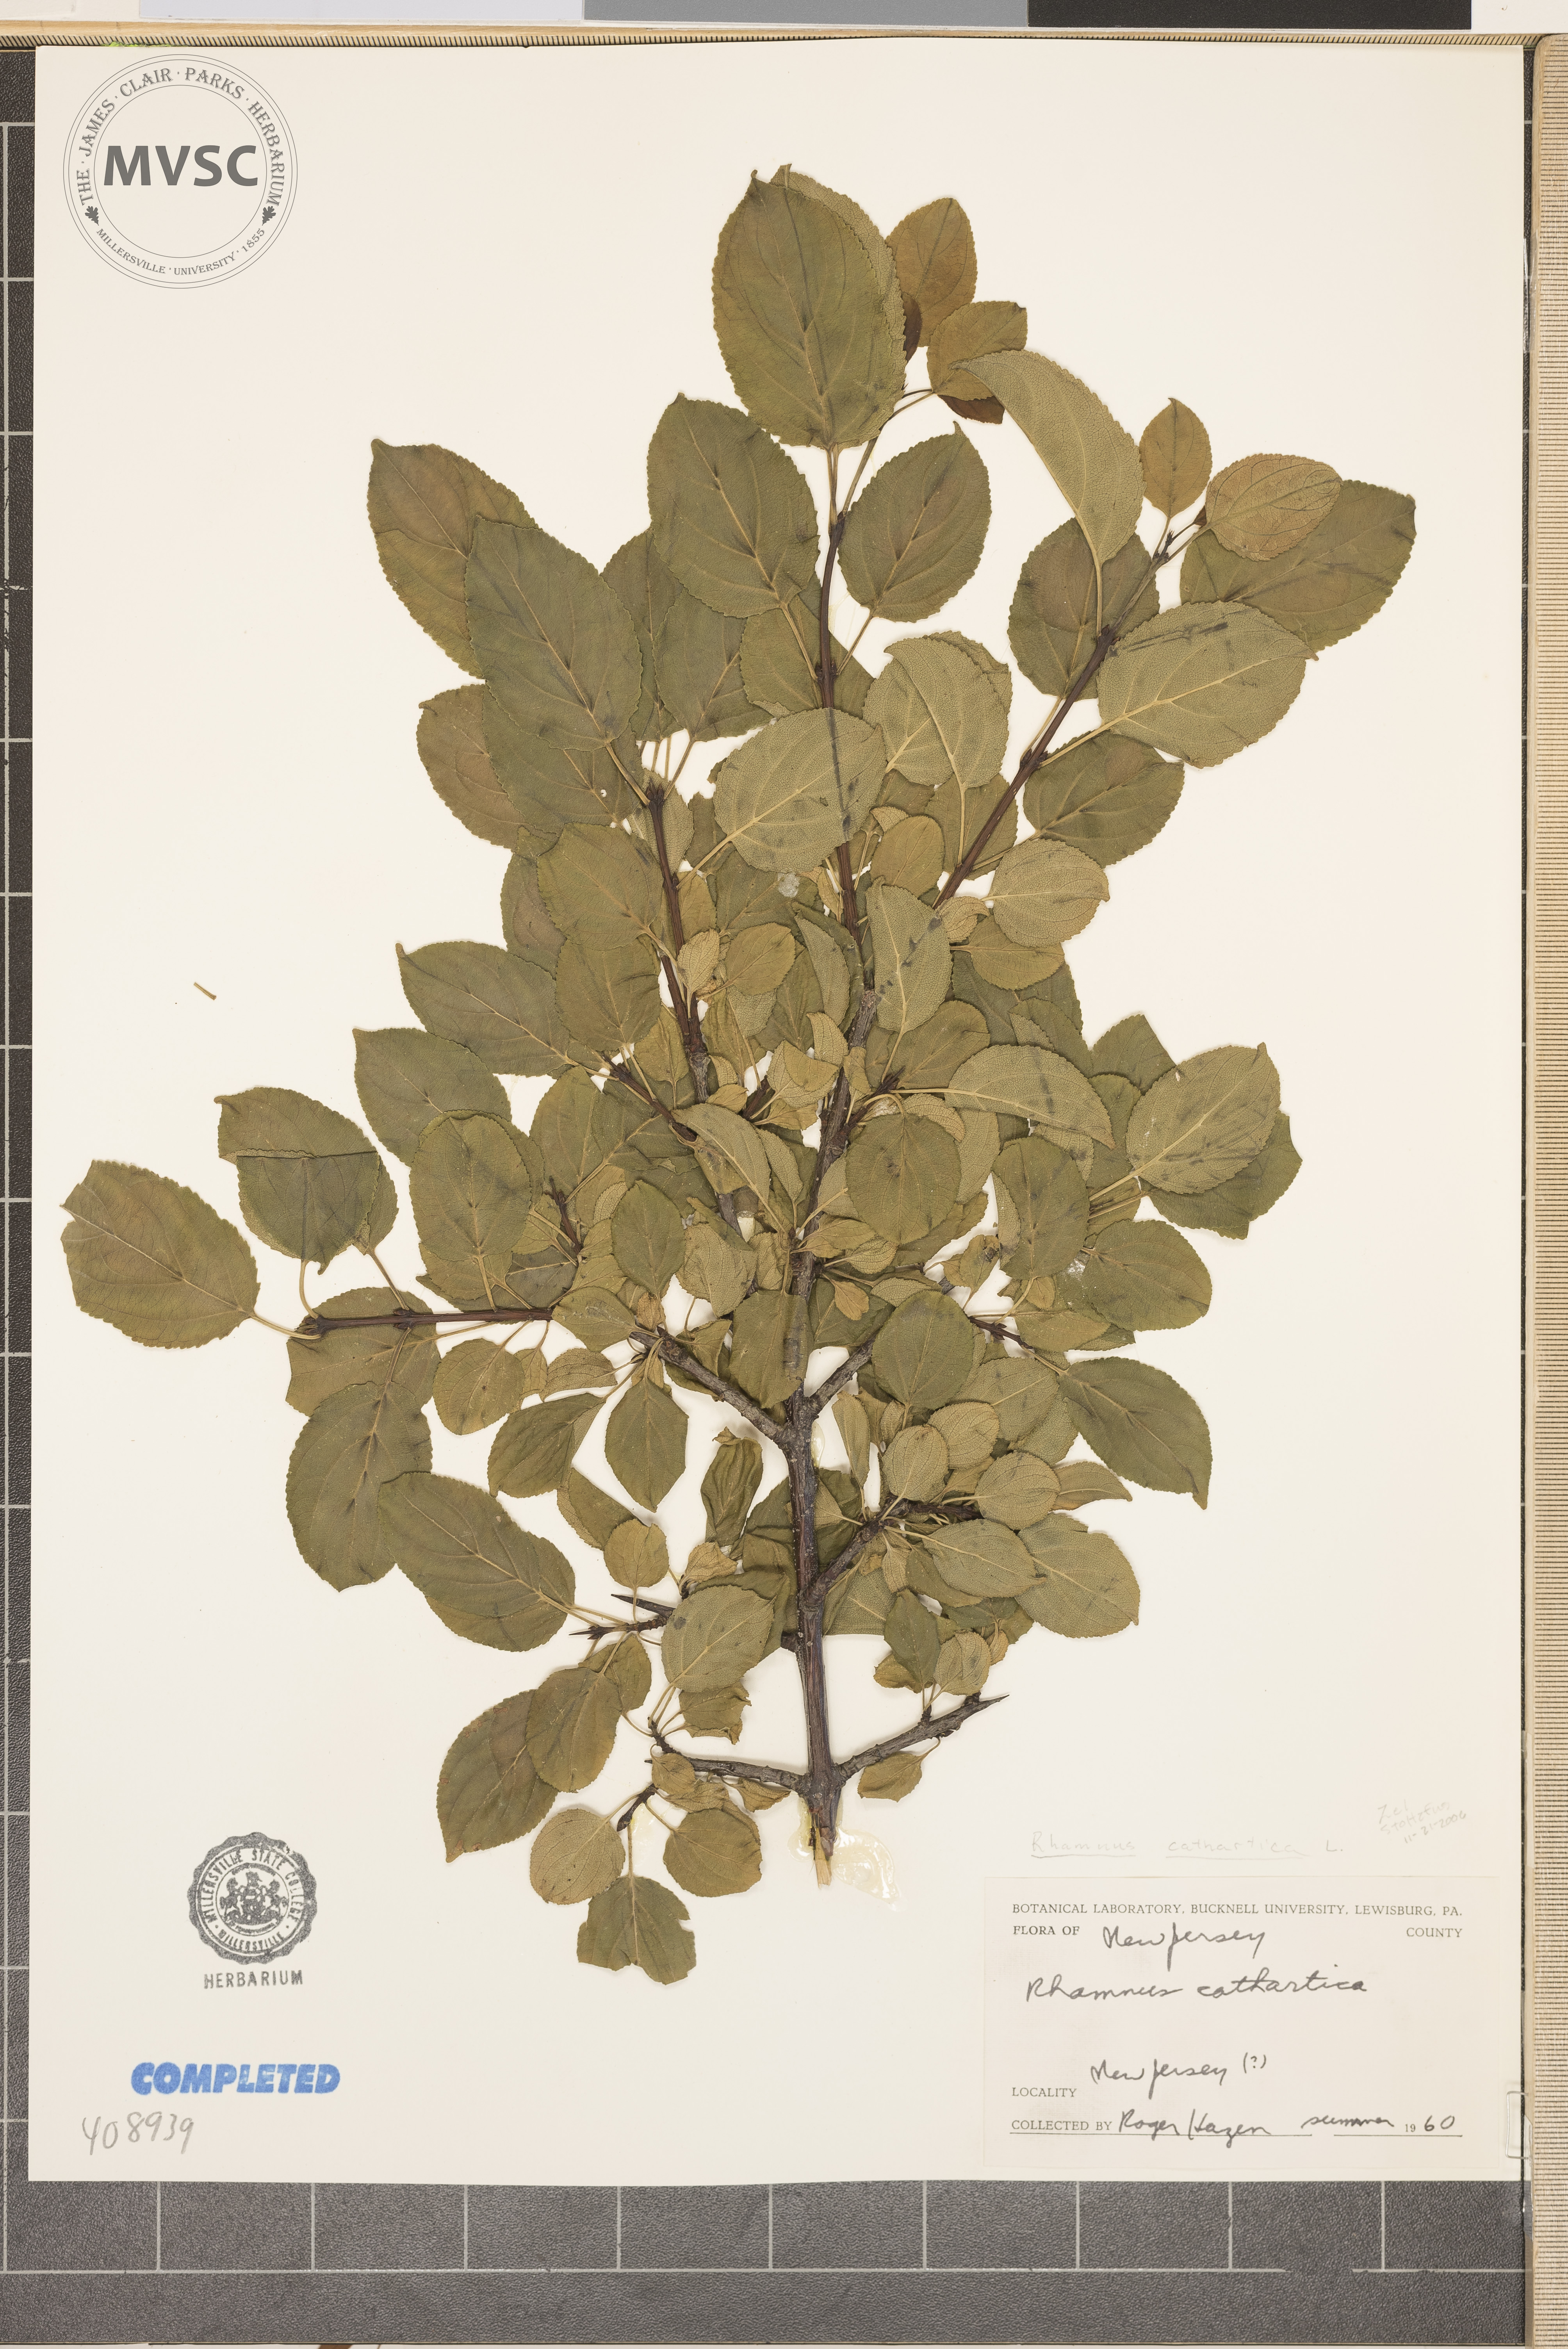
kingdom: Plantae
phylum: Tracheophyta
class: Magnoliopsida
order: Rosales
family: Rhamnaceae
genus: Rhamnus
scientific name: Rhamnus cathartica
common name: Common Buckthorn
